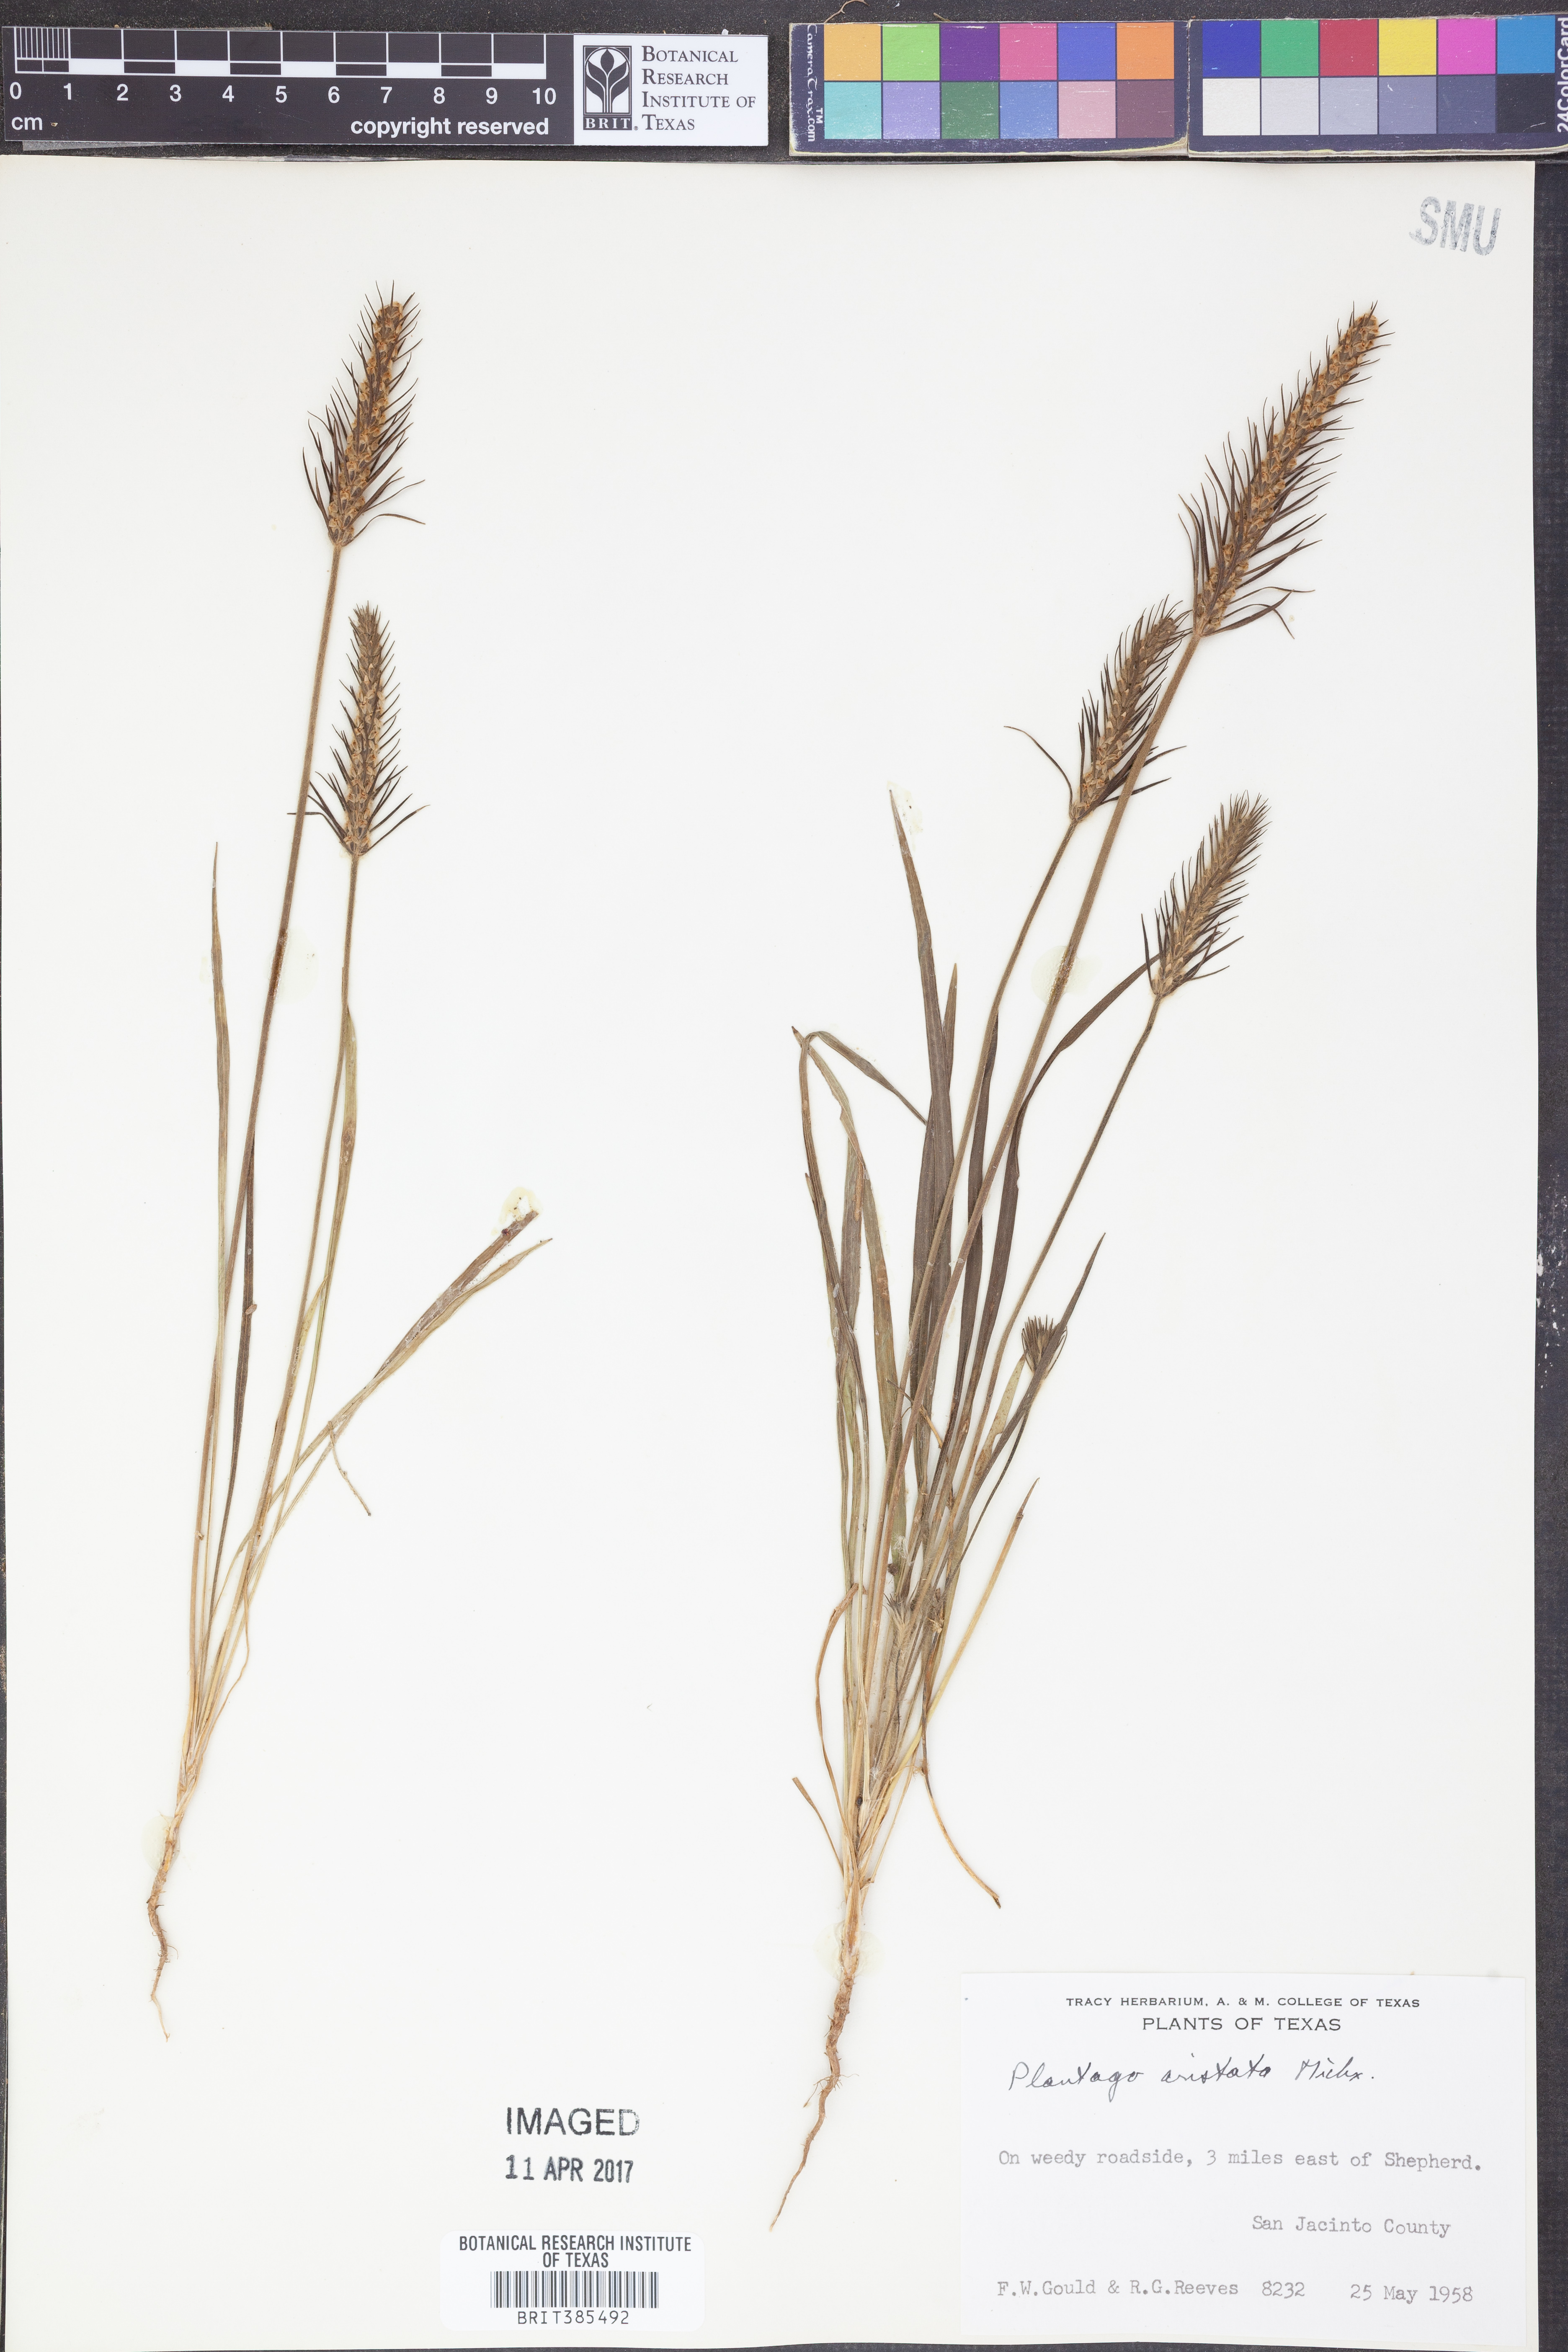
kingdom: Plantae
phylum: Tracheophyta
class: Magnoliopsida
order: Lamiales
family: Plantaginaceae
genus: Plantago
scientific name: Plantago aristata
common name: Bracted plantain
